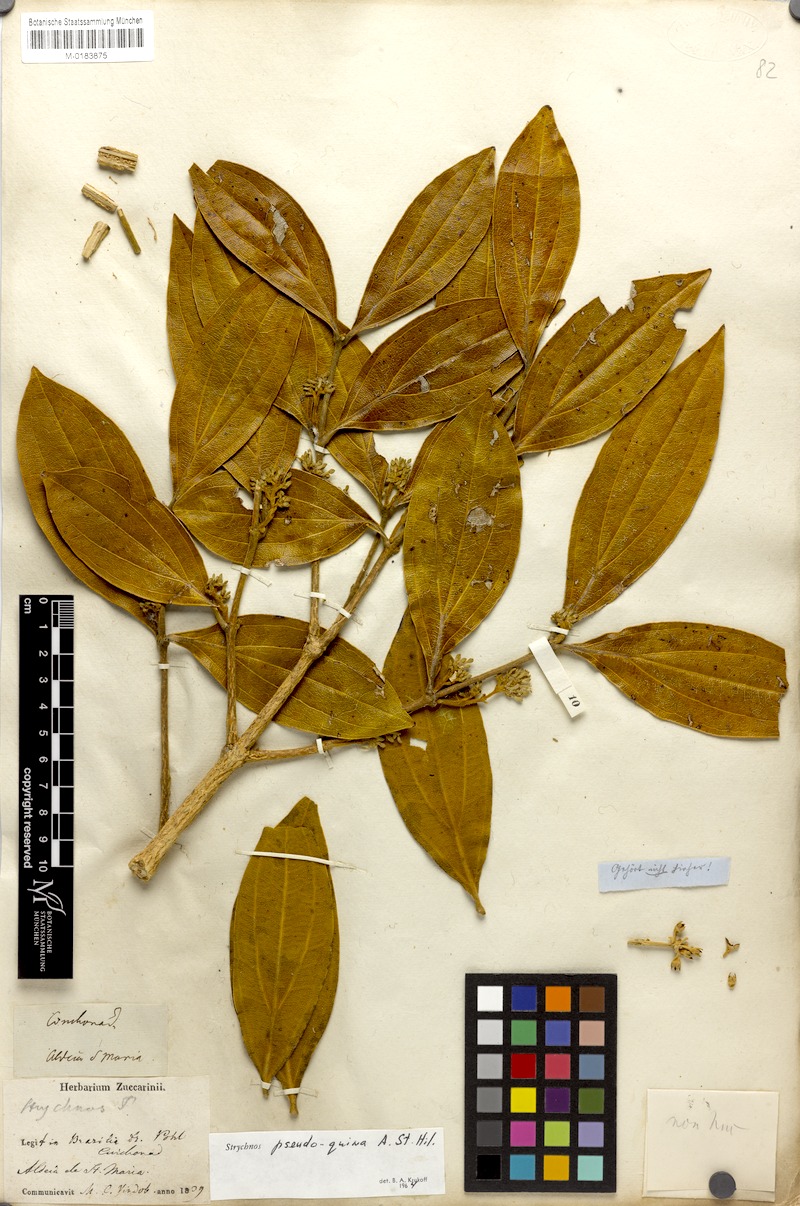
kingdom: Plantae
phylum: Tracheophyta
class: Magnoliopsida
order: Gentianales
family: Loganiaceae
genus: Strychnos
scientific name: Strychnos pseudoquina
